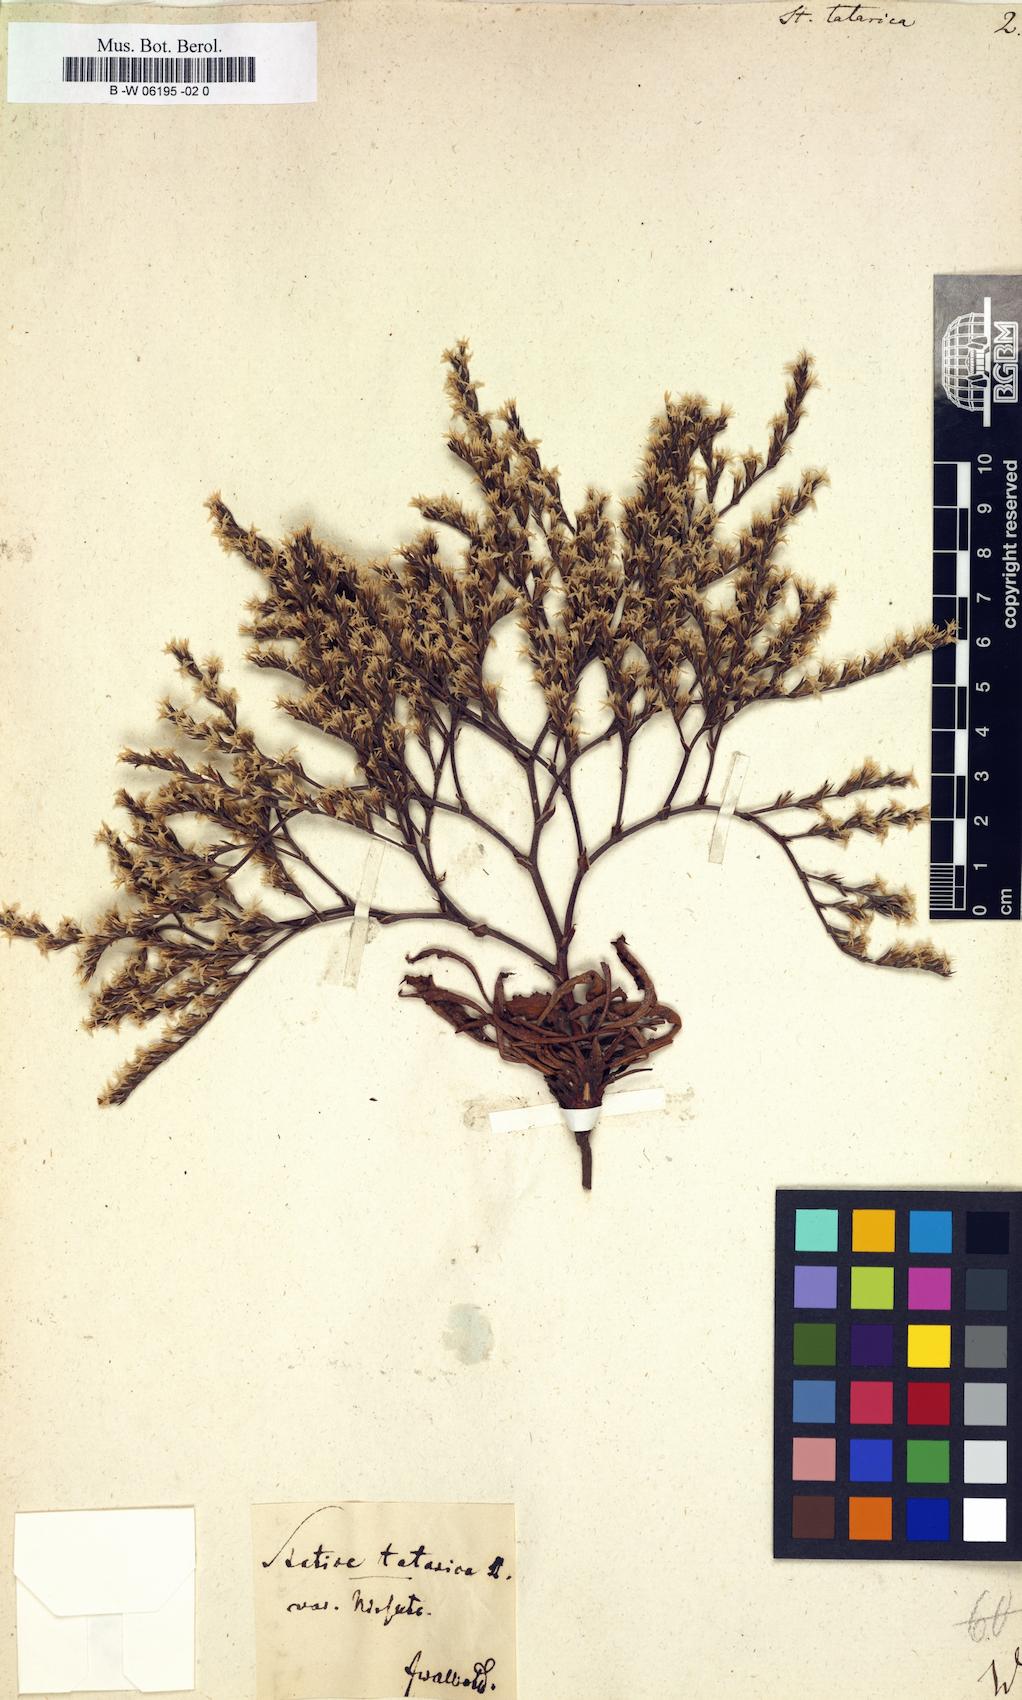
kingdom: Plantae
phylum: Tracheophyta
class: Magnoliopsida
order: Caryophyllales
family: Plumbaginaceae
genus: Goniolimon
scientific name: Goniolimon tataricum
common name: Statice
